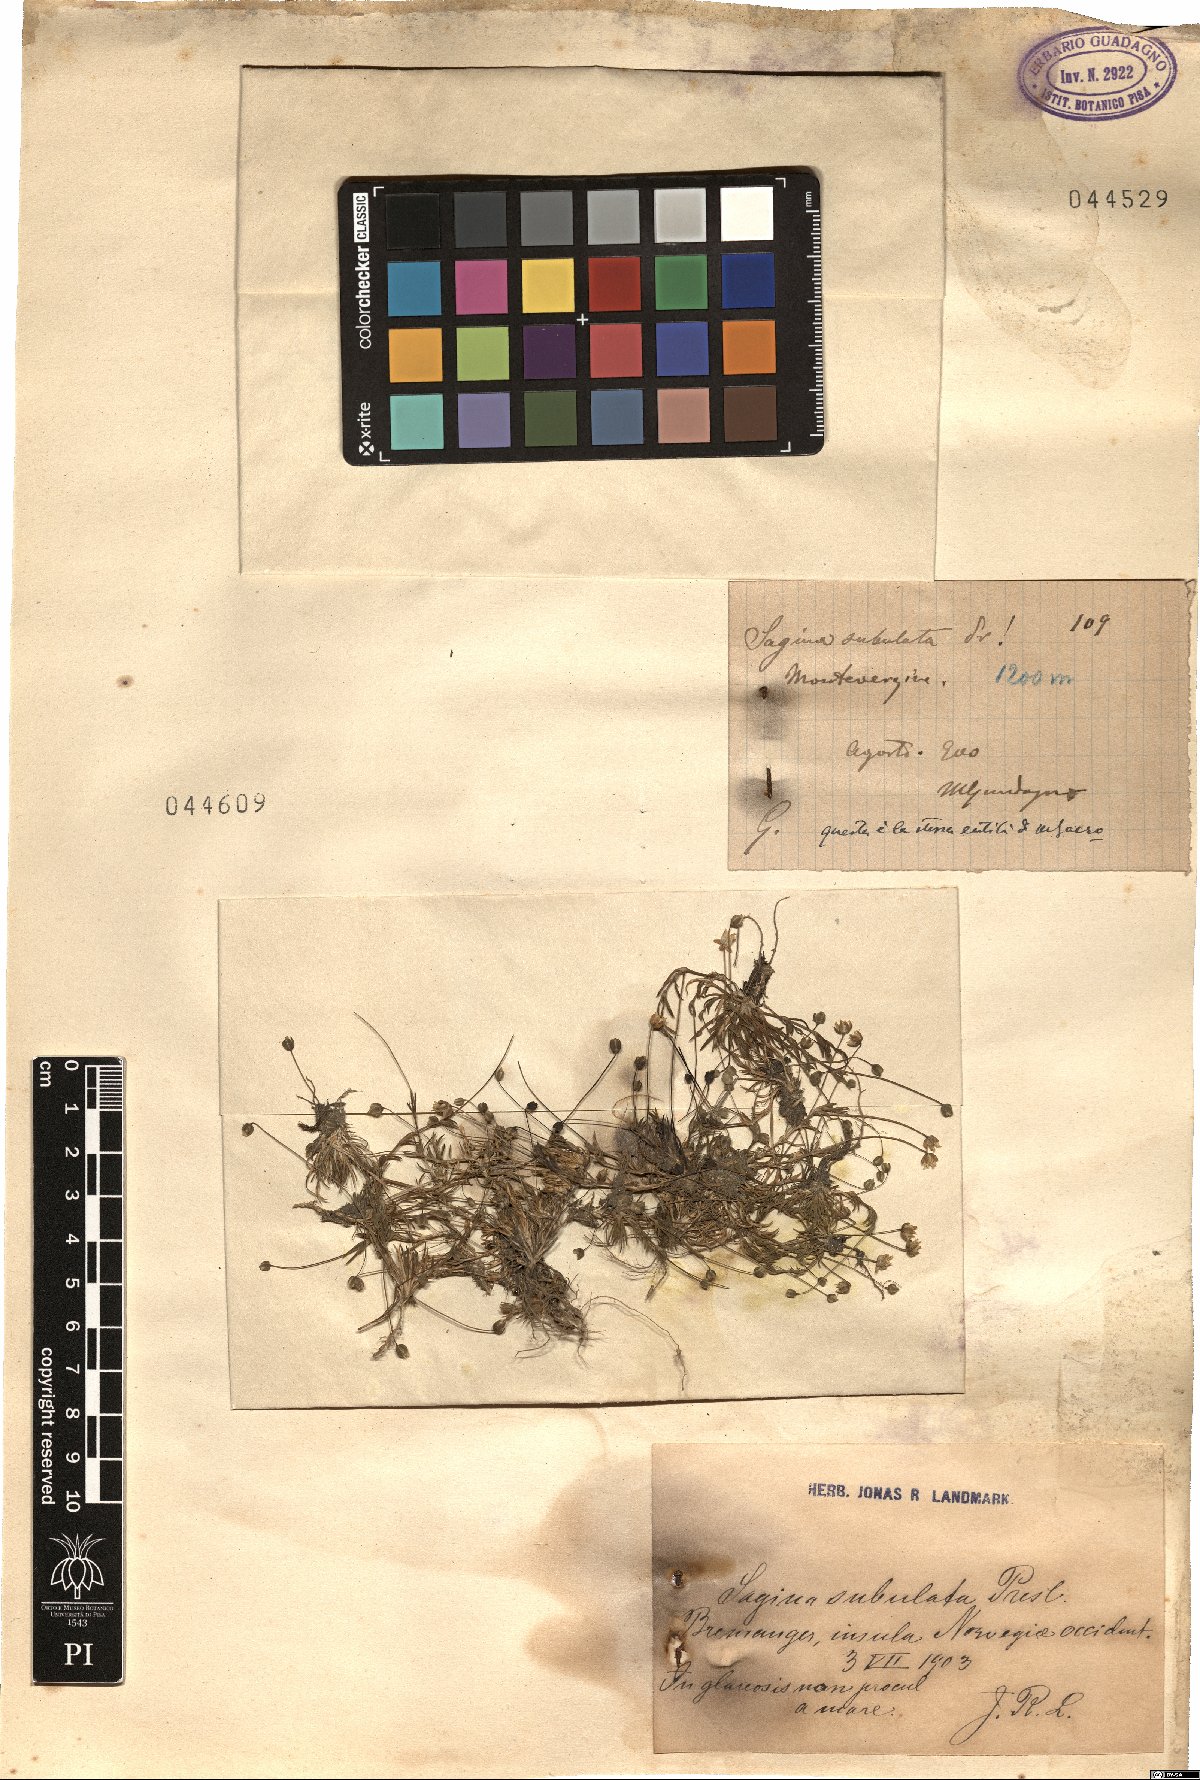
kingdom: Plantae
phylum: Tracheophyta
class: Magnoliopsida
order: Caryophyllales
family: Caryophyllaceae
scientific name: Caryophyllaceae
